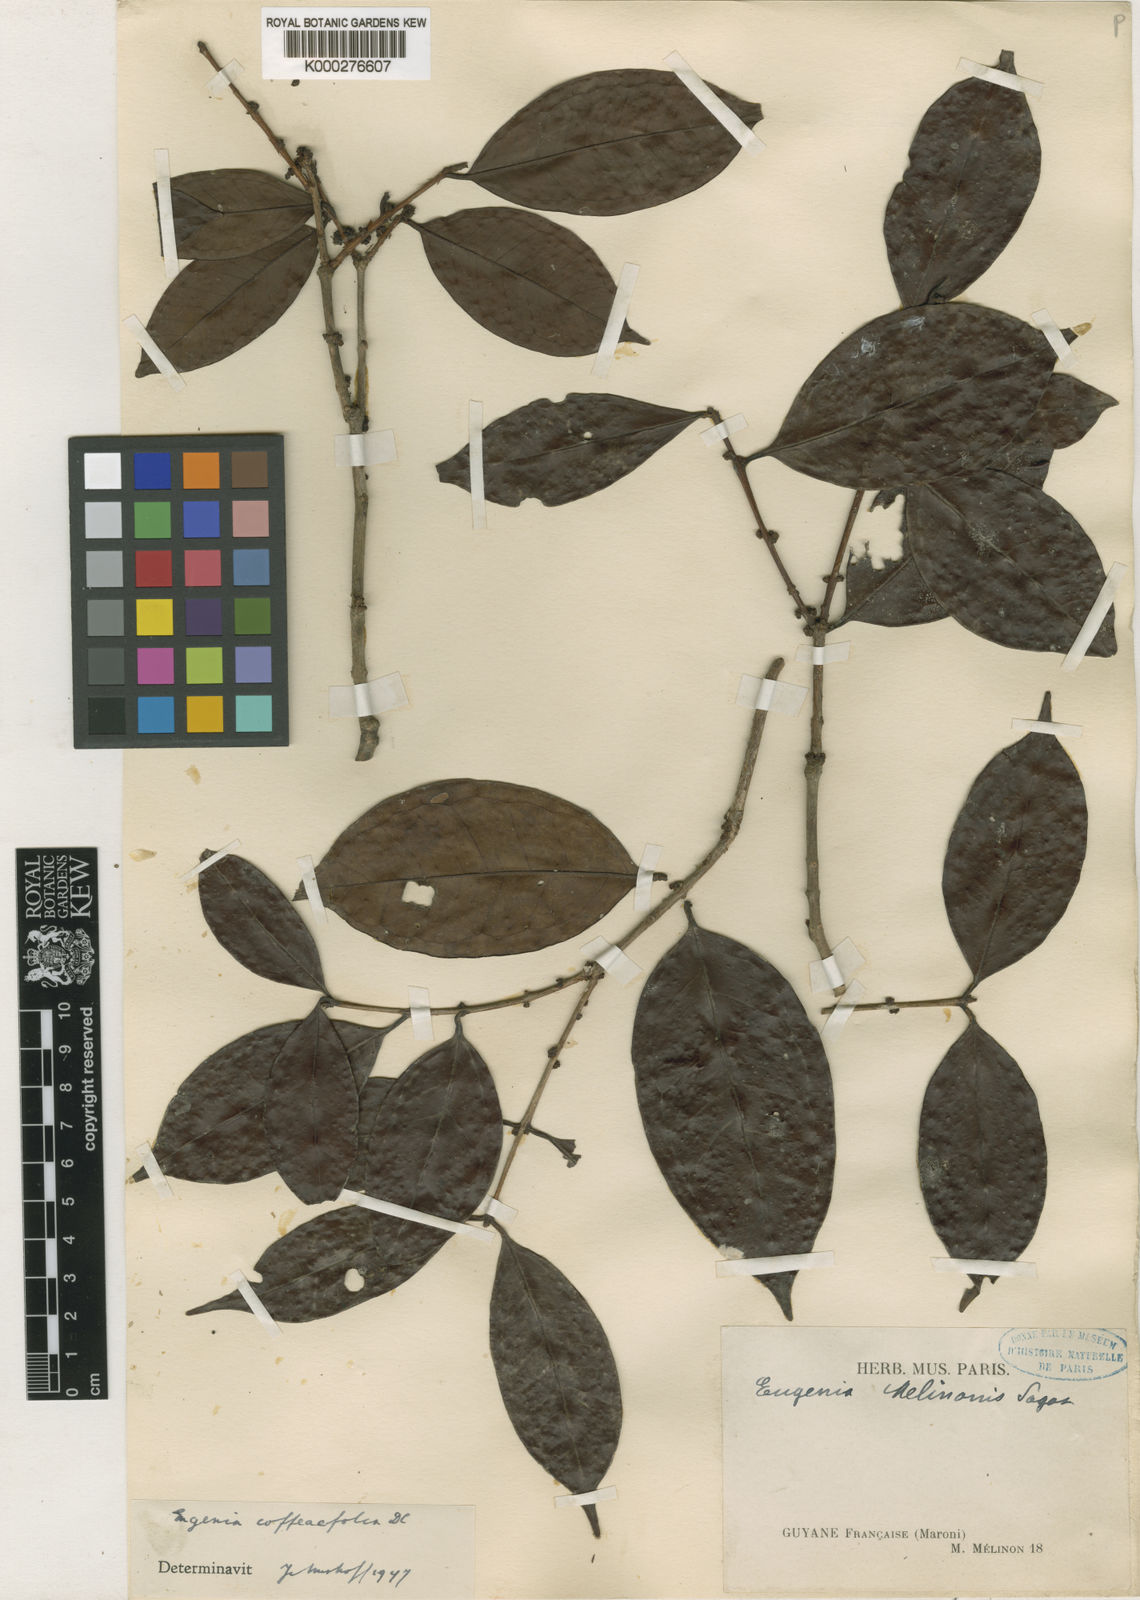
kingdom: Plantae
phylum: Tracheophyta
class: Magnoliopsida
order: Myrtales
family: Myrtaceae
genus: Eugenia
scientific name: Eugenia coffeifolia
